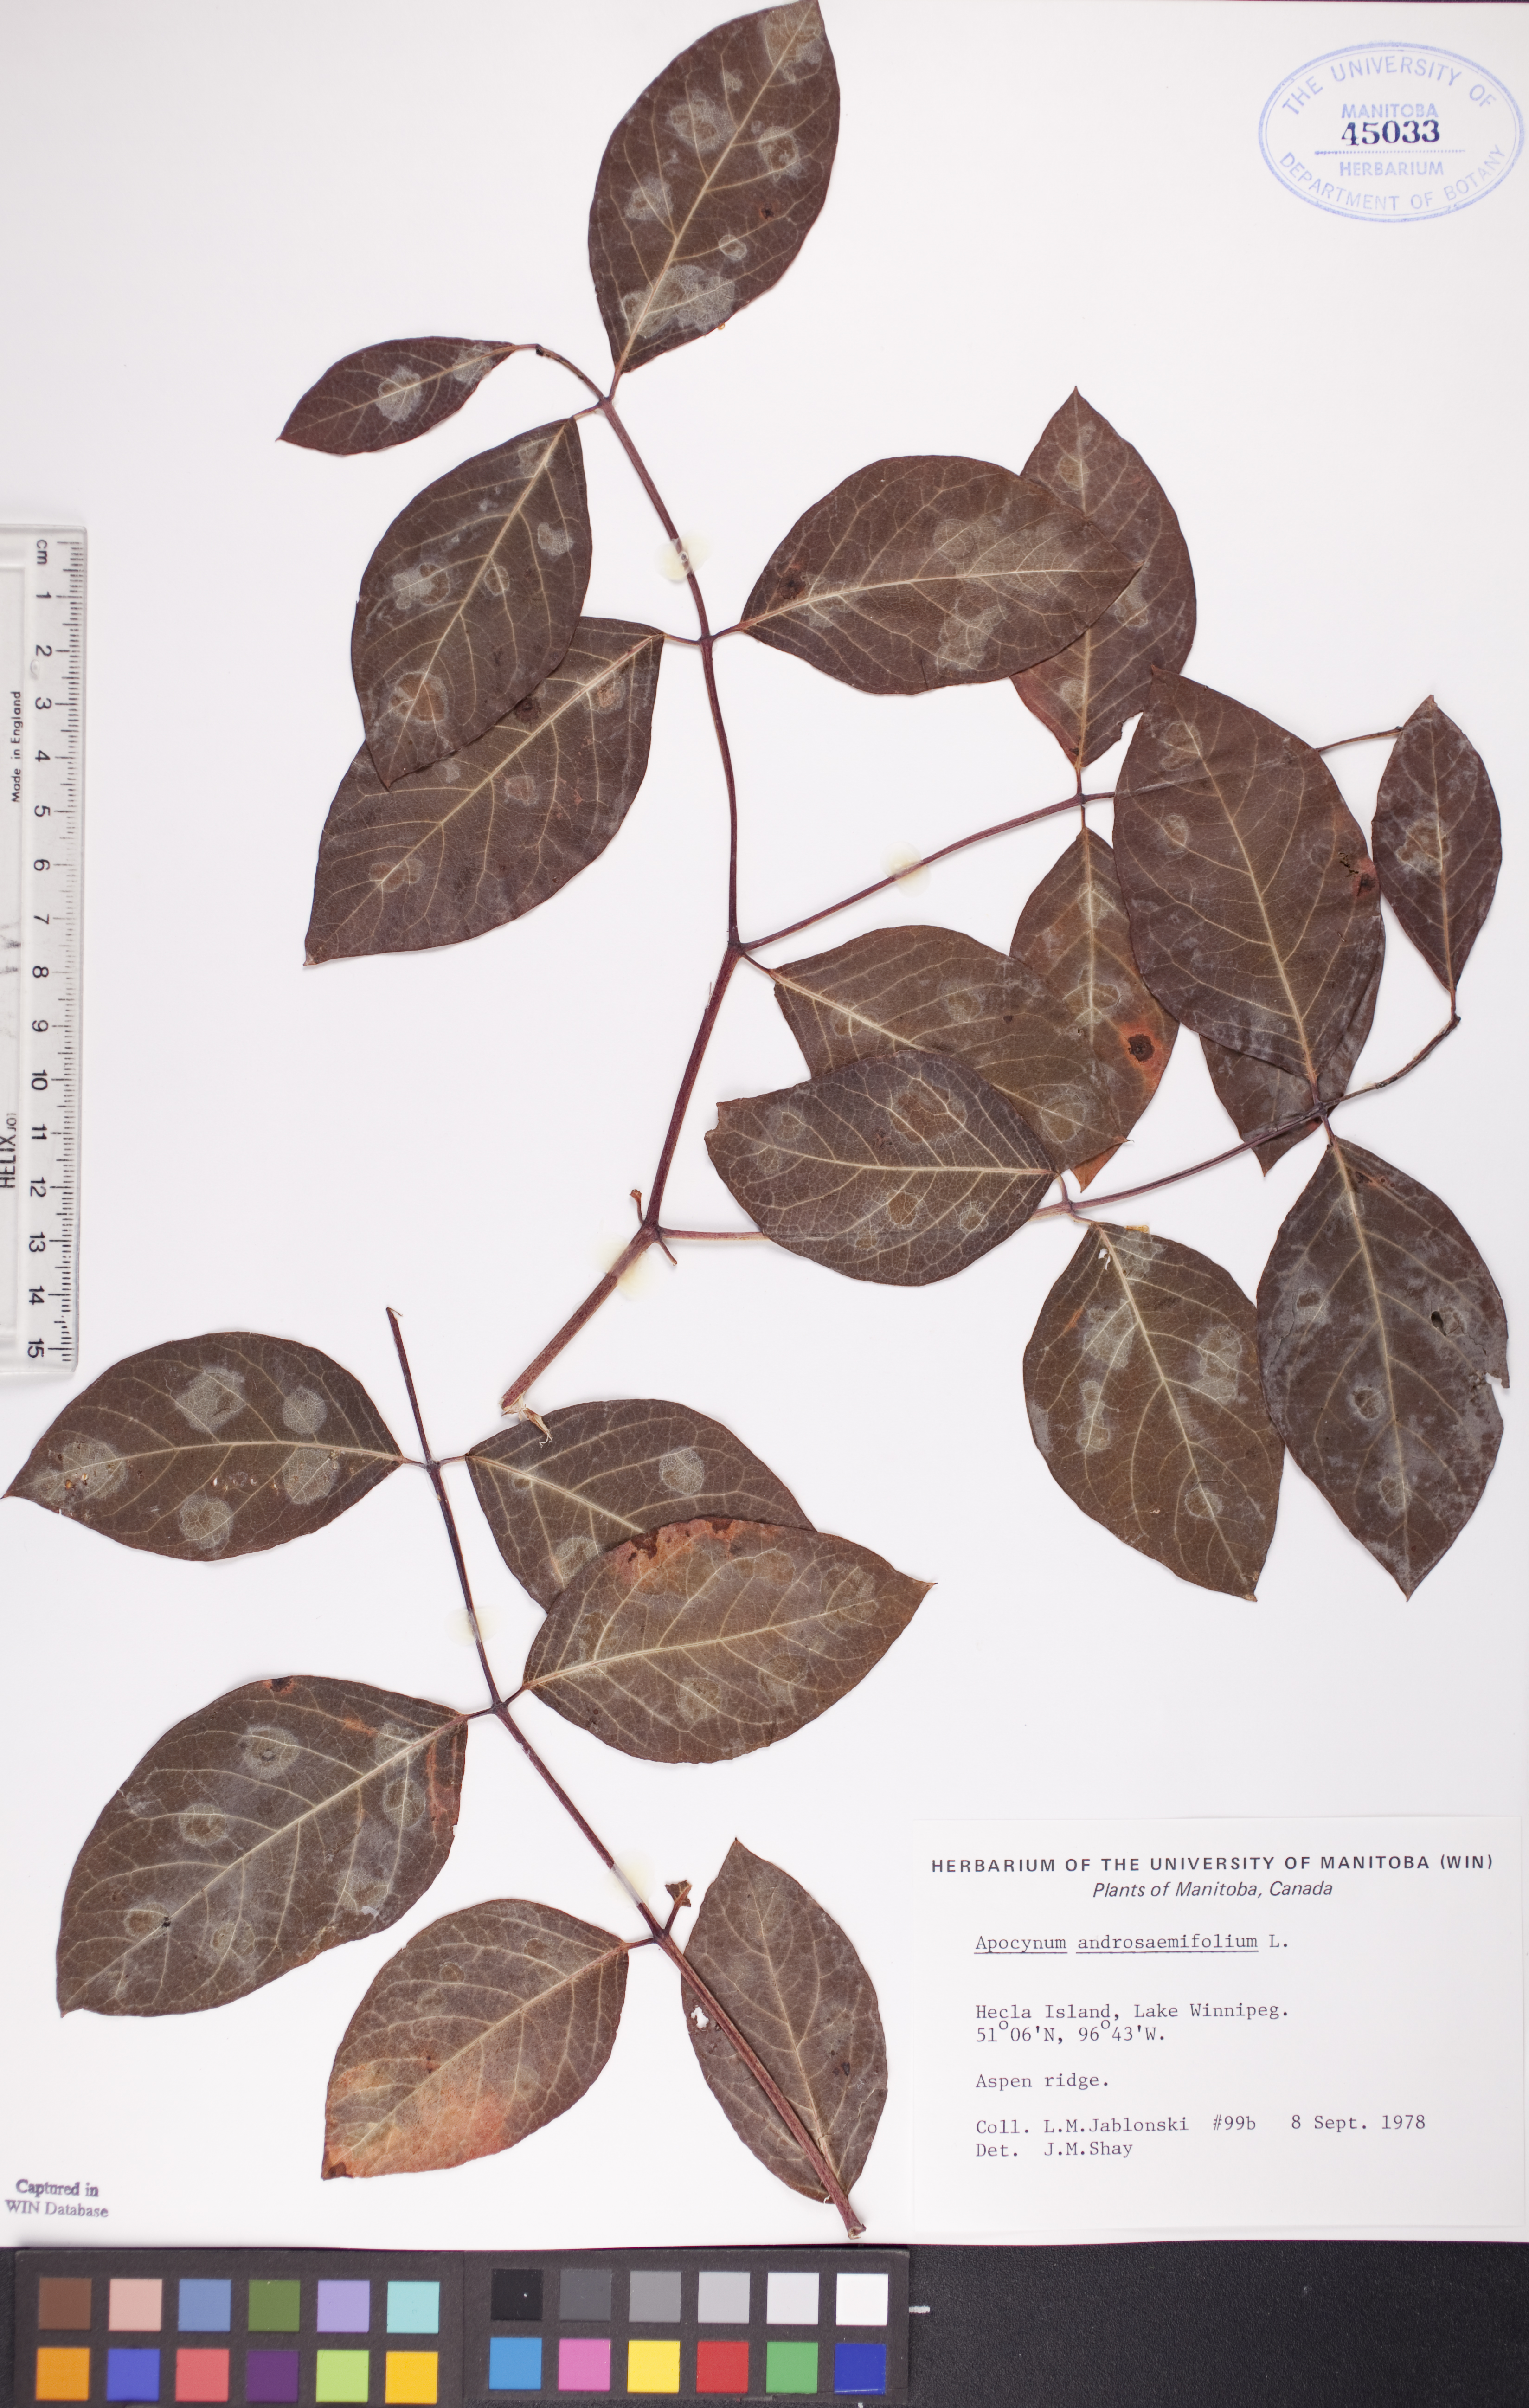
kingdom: Plantae
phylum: Tracheophyta
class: Magnoliopsida
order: Gentianales
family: Apocynaceae
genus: Apocynum
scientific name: Apocynum androsaemifolium
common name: Spreading dogbane
